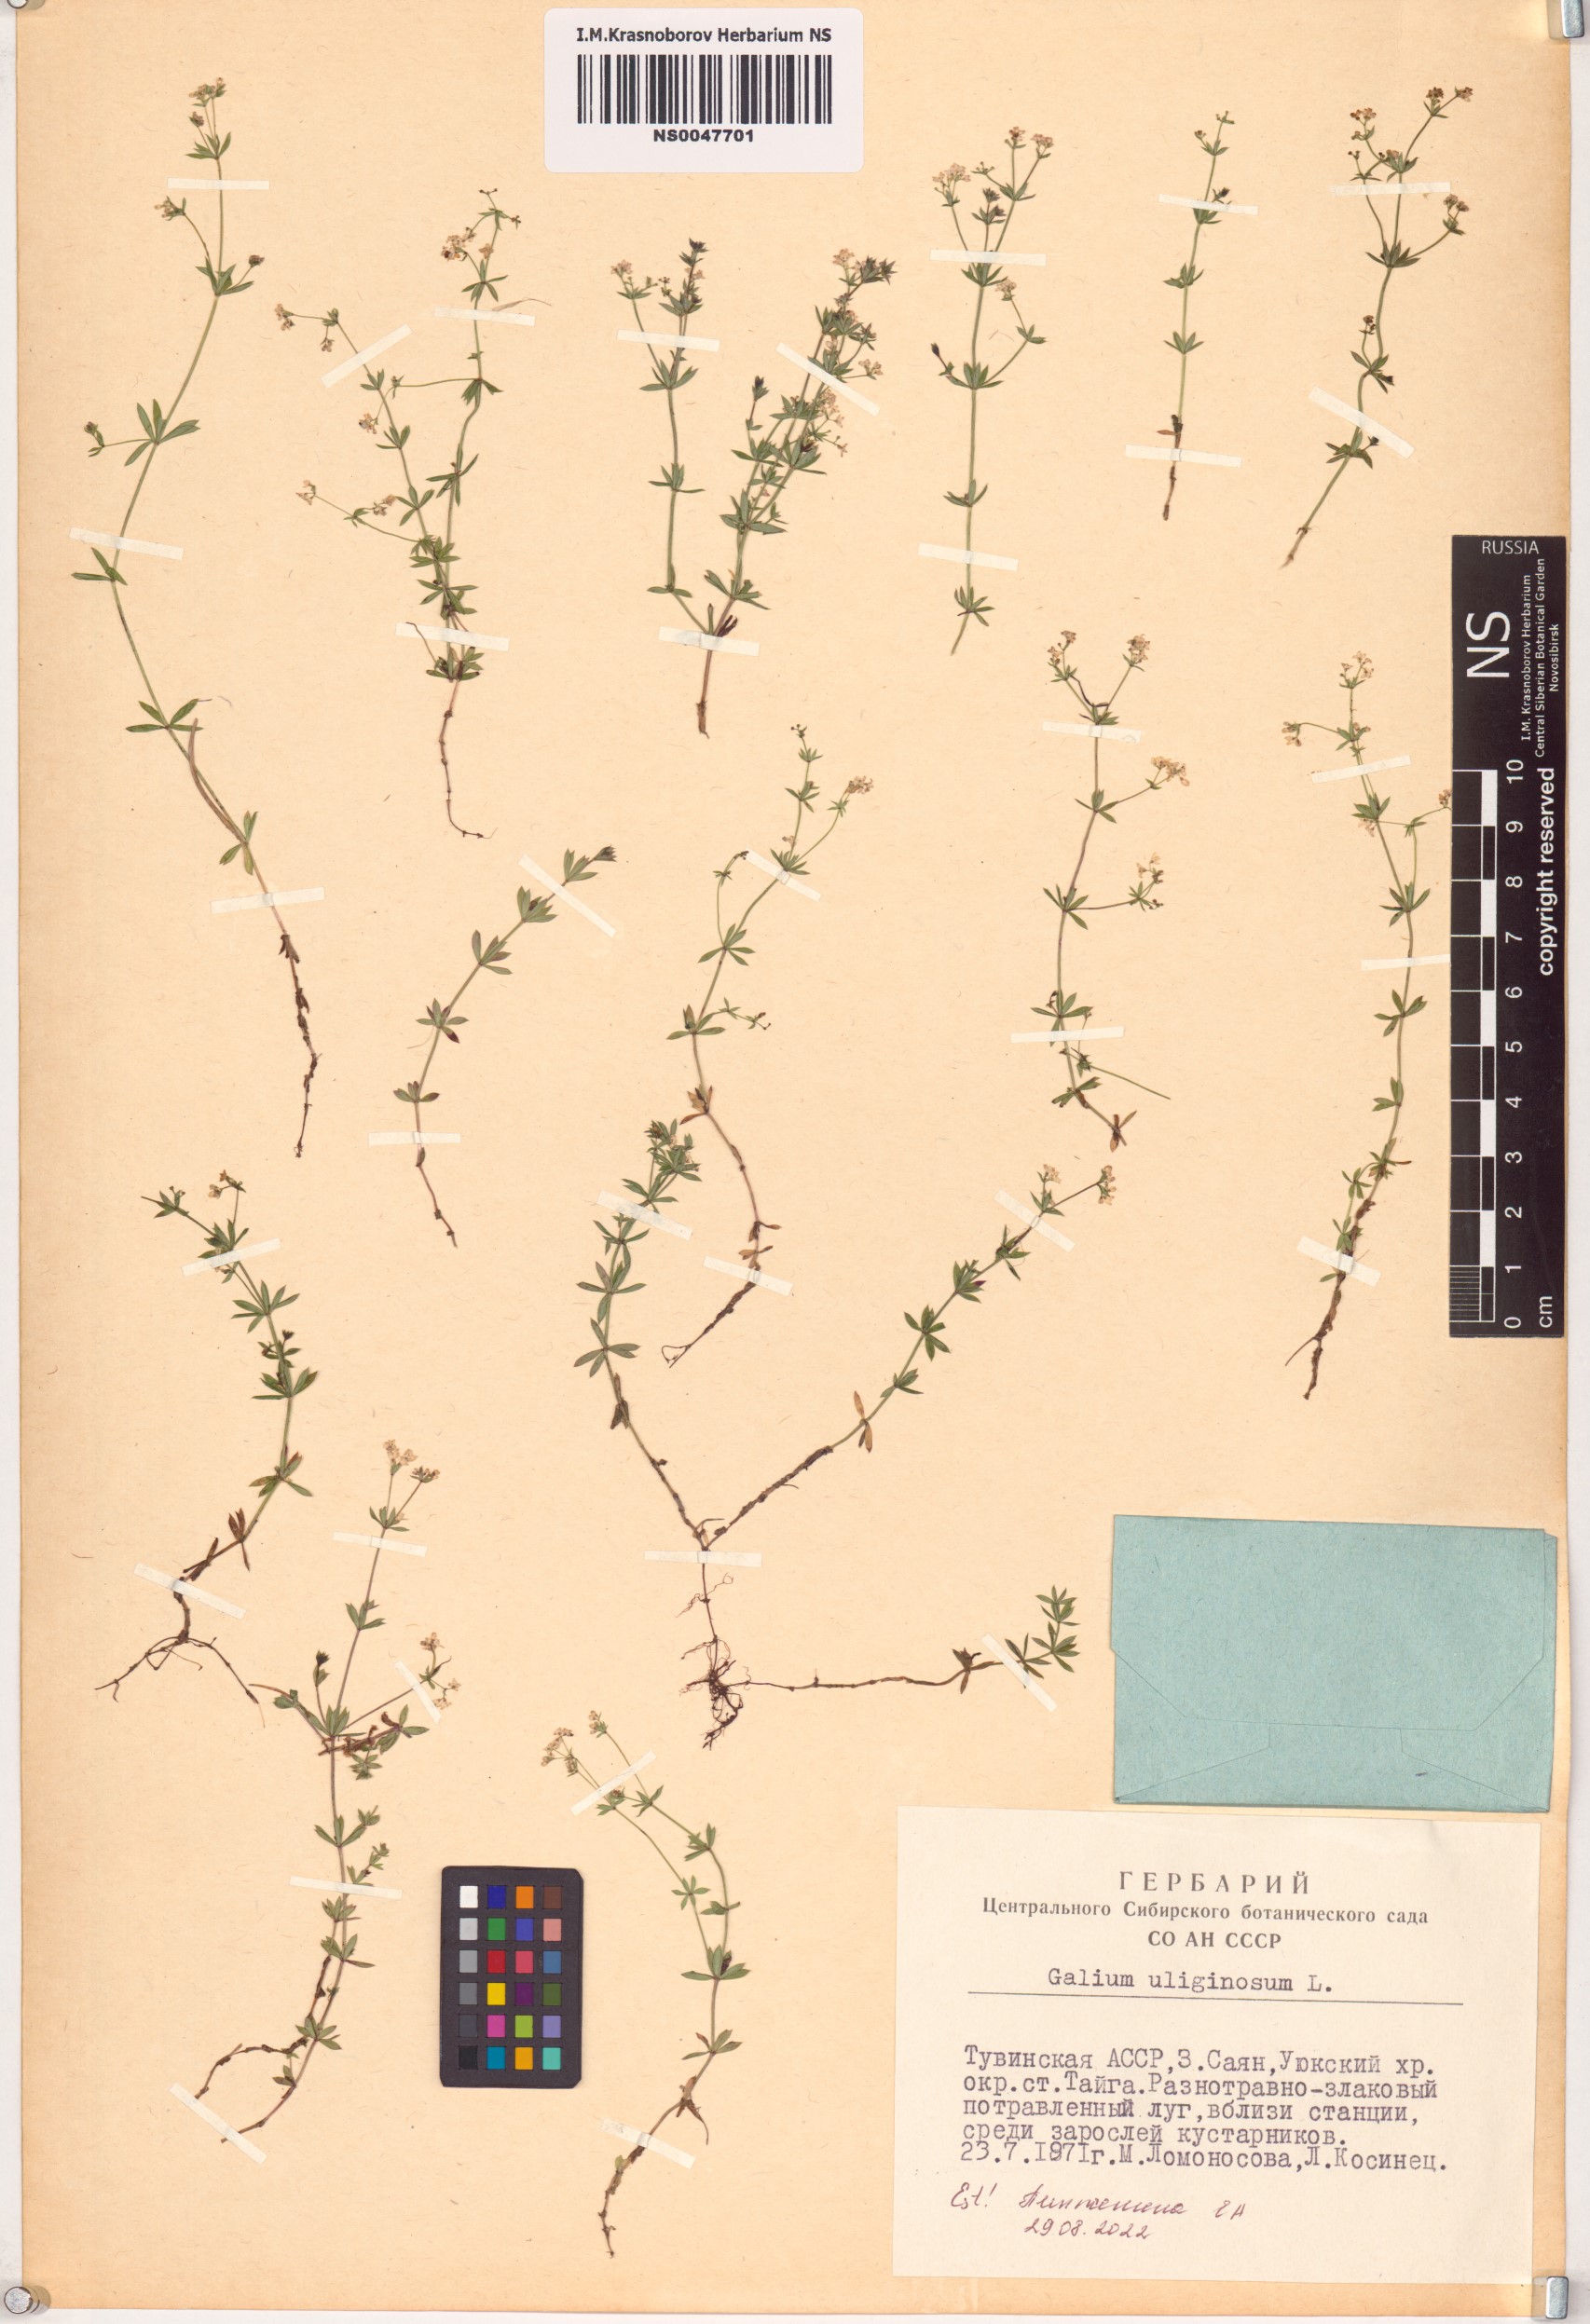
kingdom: Plantae
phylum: Tracheophyta
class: Magnoliopsida
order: Gentianales
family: Rubiaceae
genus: Galium
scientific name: Galium uliginosum
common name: Fen bedstraw
